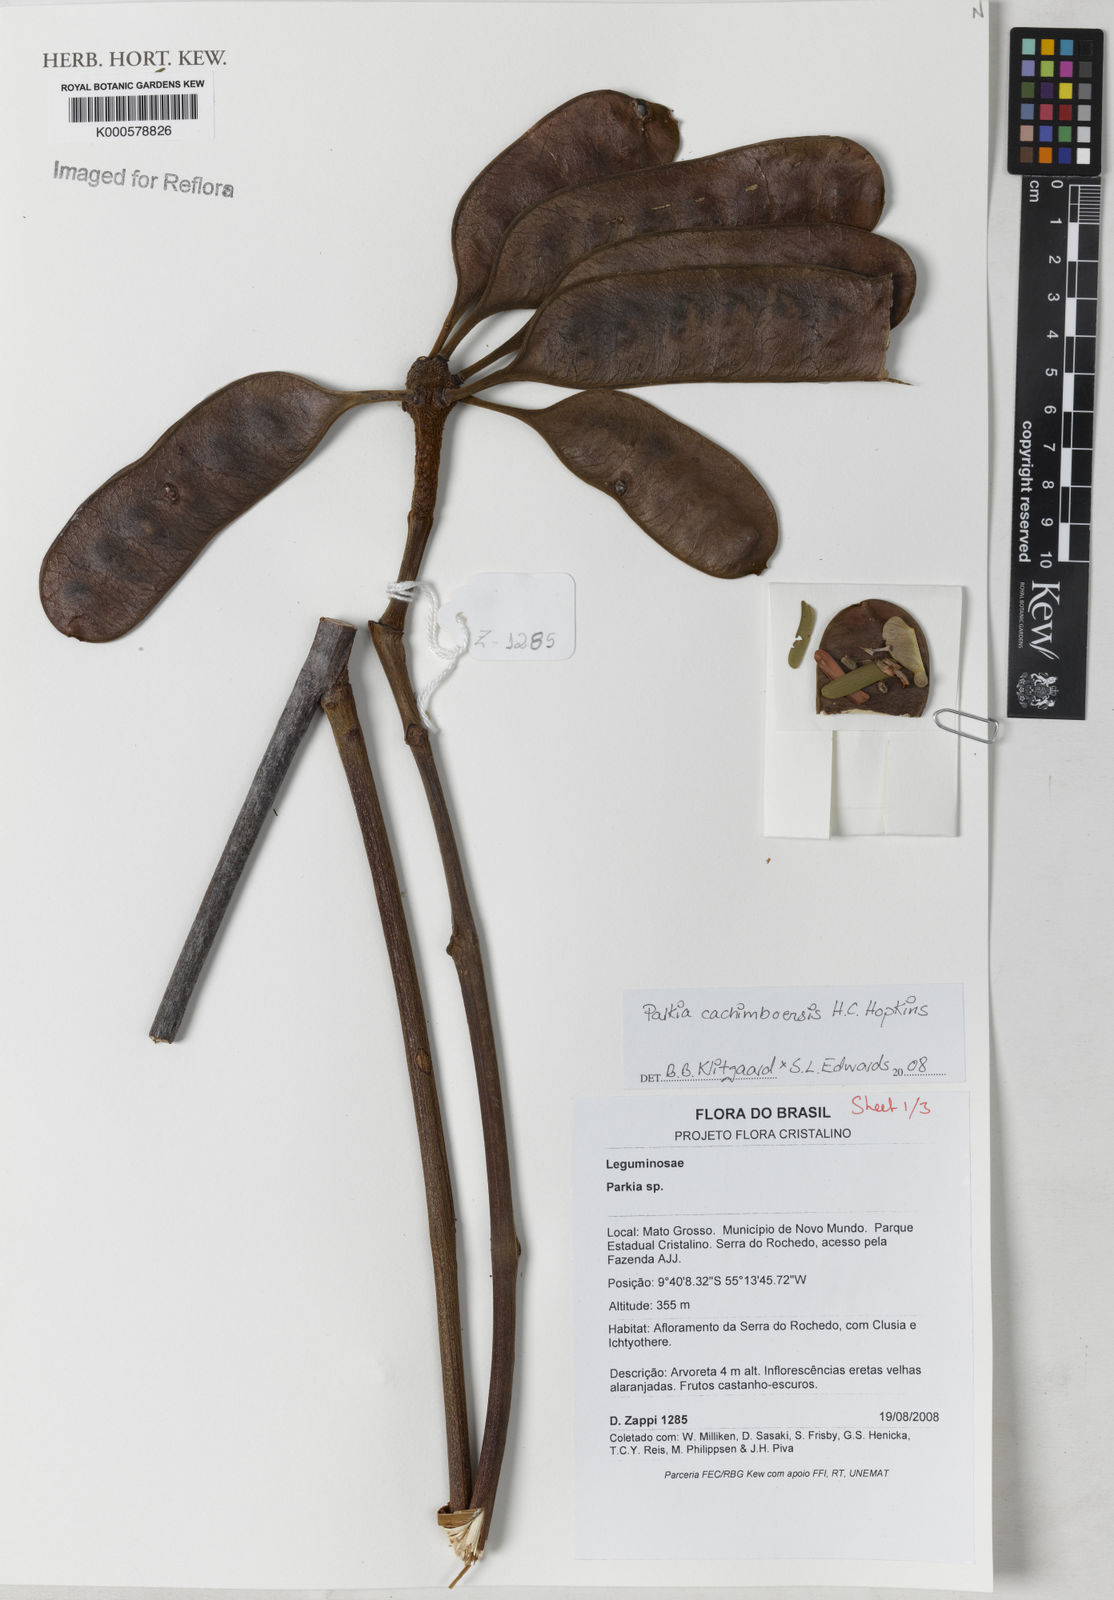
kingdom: Plantae
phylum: Tracheophyta
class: Magnoliopsida
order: Fabales
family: Fabaceae
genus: Parkia
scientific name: Parkia cachimboensis
